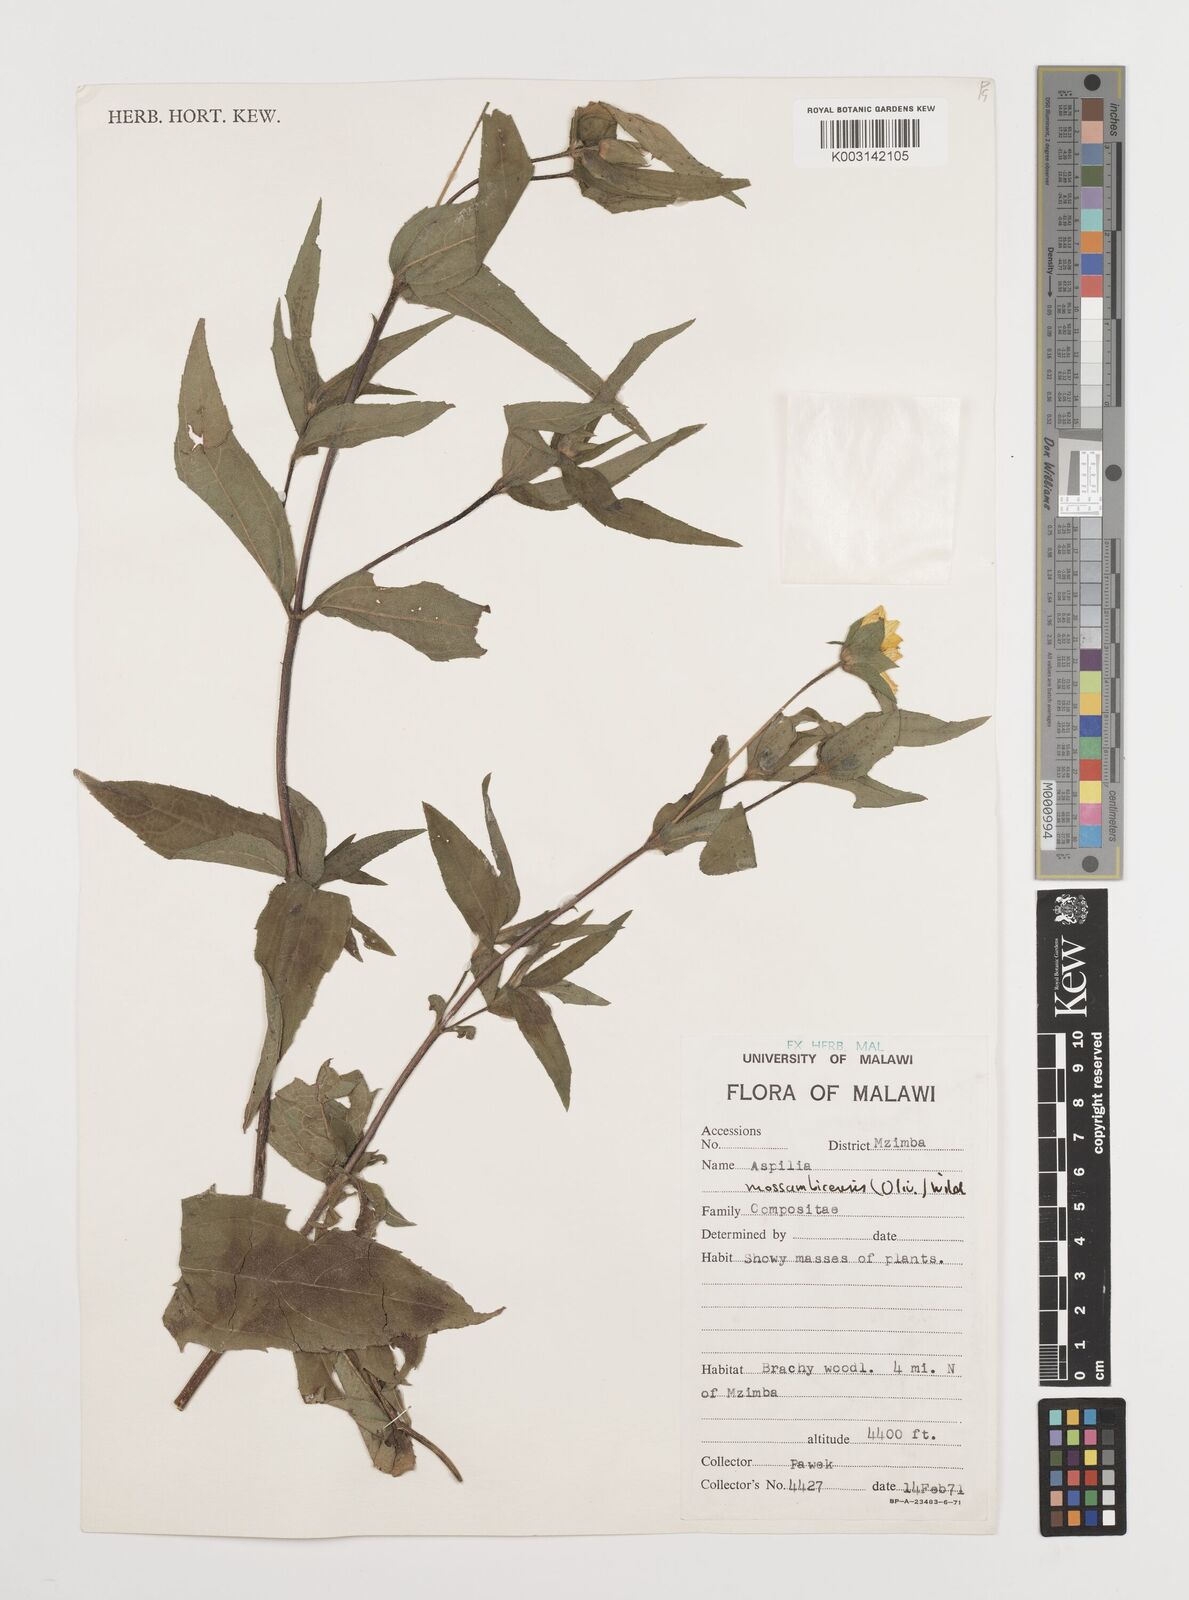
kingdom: Plantae
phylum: Tracheophyta
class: Magnoliopsida
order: Asterales
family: Asteraceae
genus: Aspilia
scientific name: Aspilia mossambicensis
